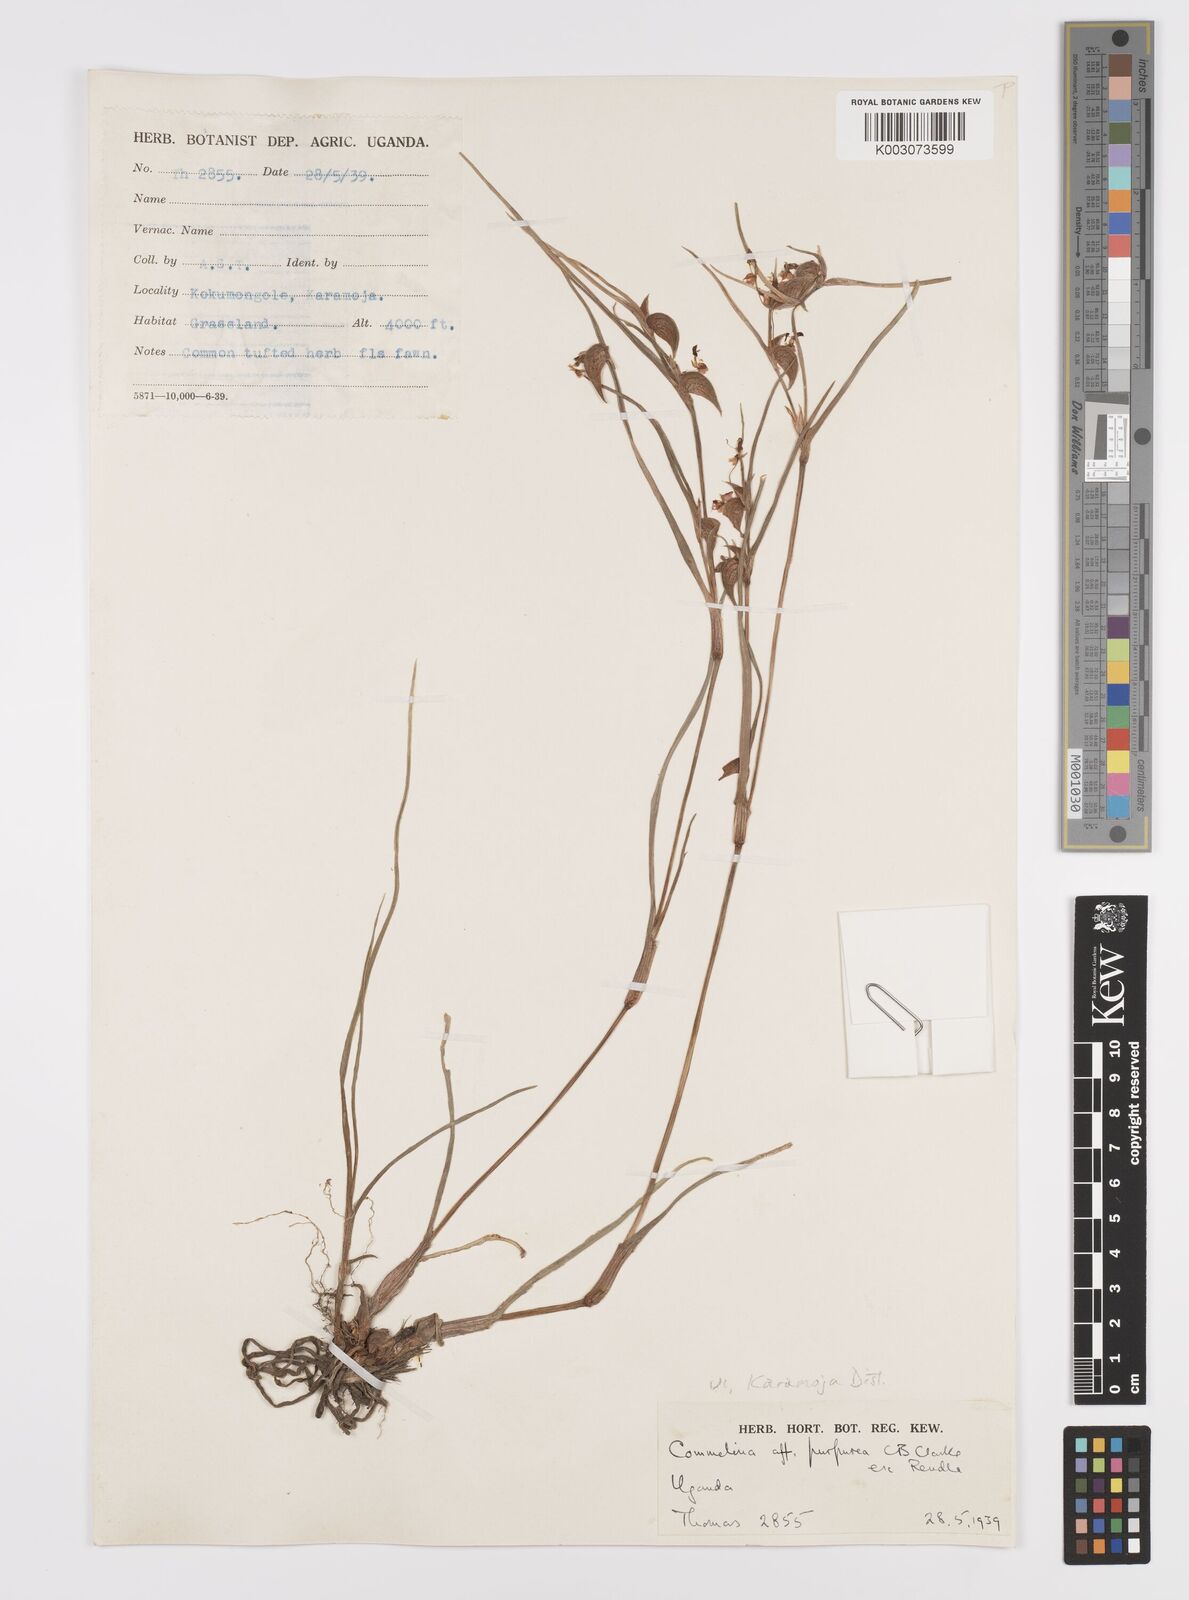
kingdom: Plantae
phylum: Tracheophyta
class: Liliopsida
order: Commelinales
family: Commelinaceae
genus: Commelina
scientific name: Commelina purpurea
